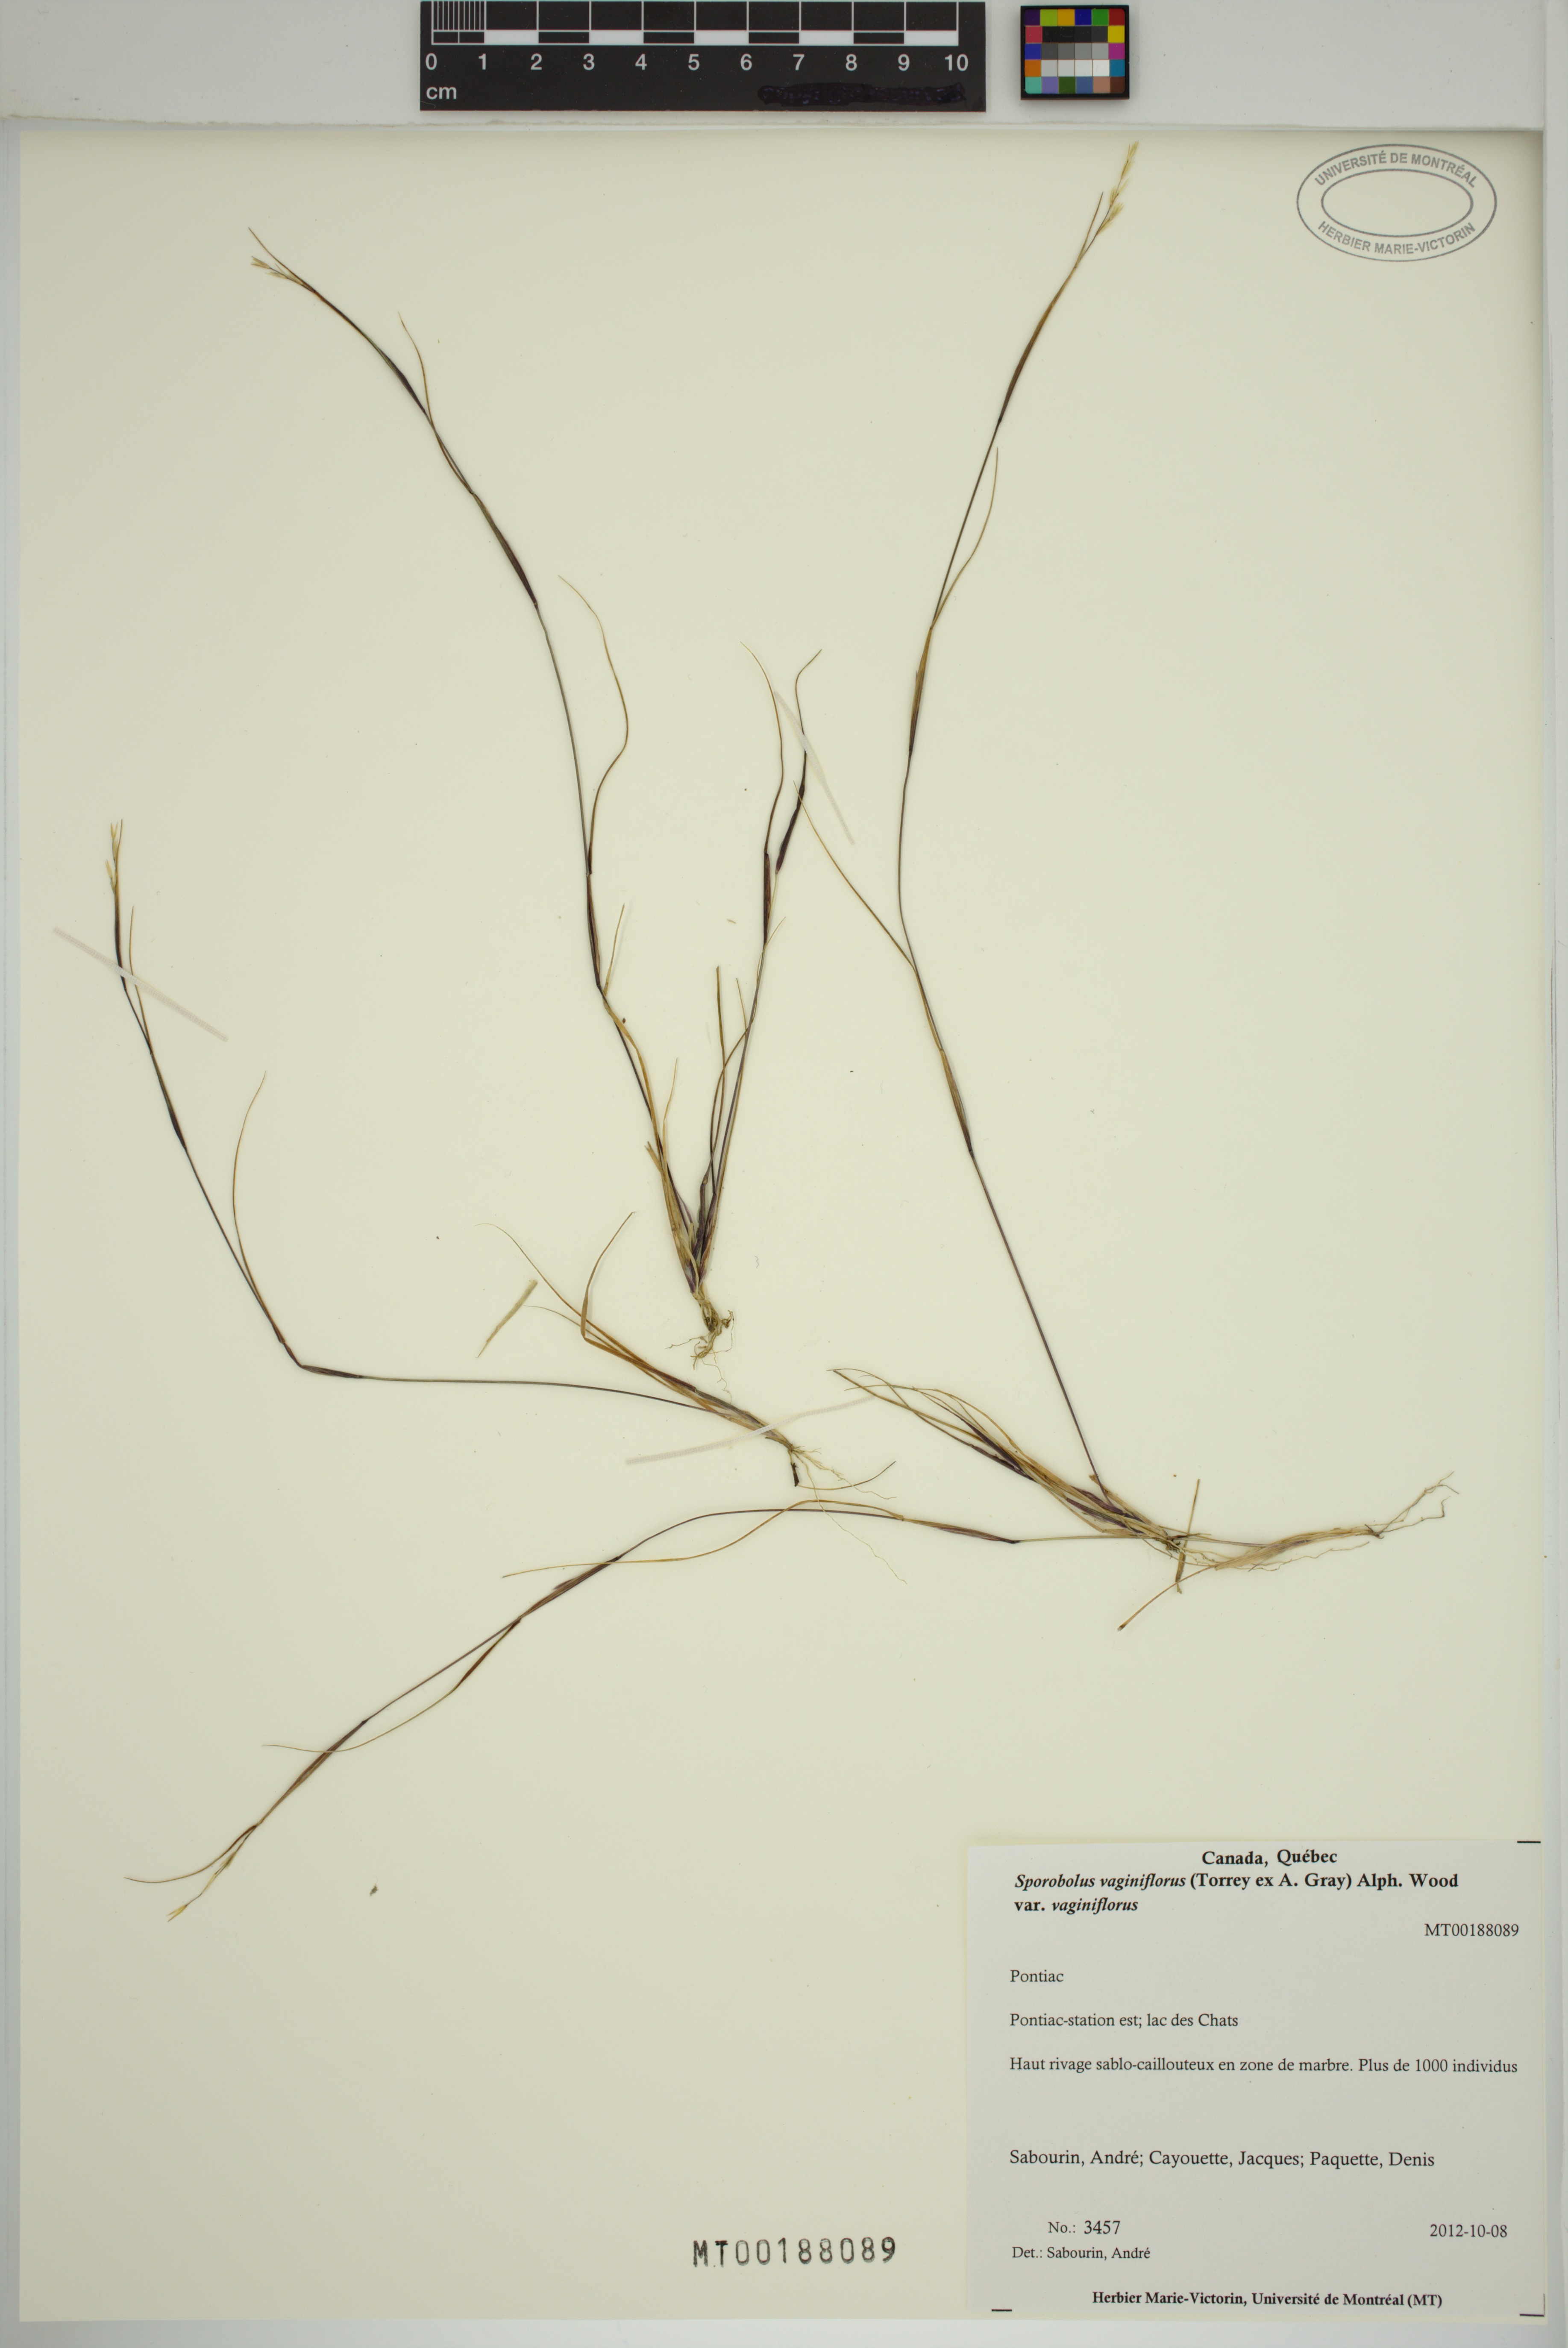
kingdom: Plantae
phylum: Tracheophyta
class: Liliopsida
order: Poales
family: Poaceae
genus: Sporobolus
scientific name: Sporobolus vaginiflorus
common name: Poverty dropseed
